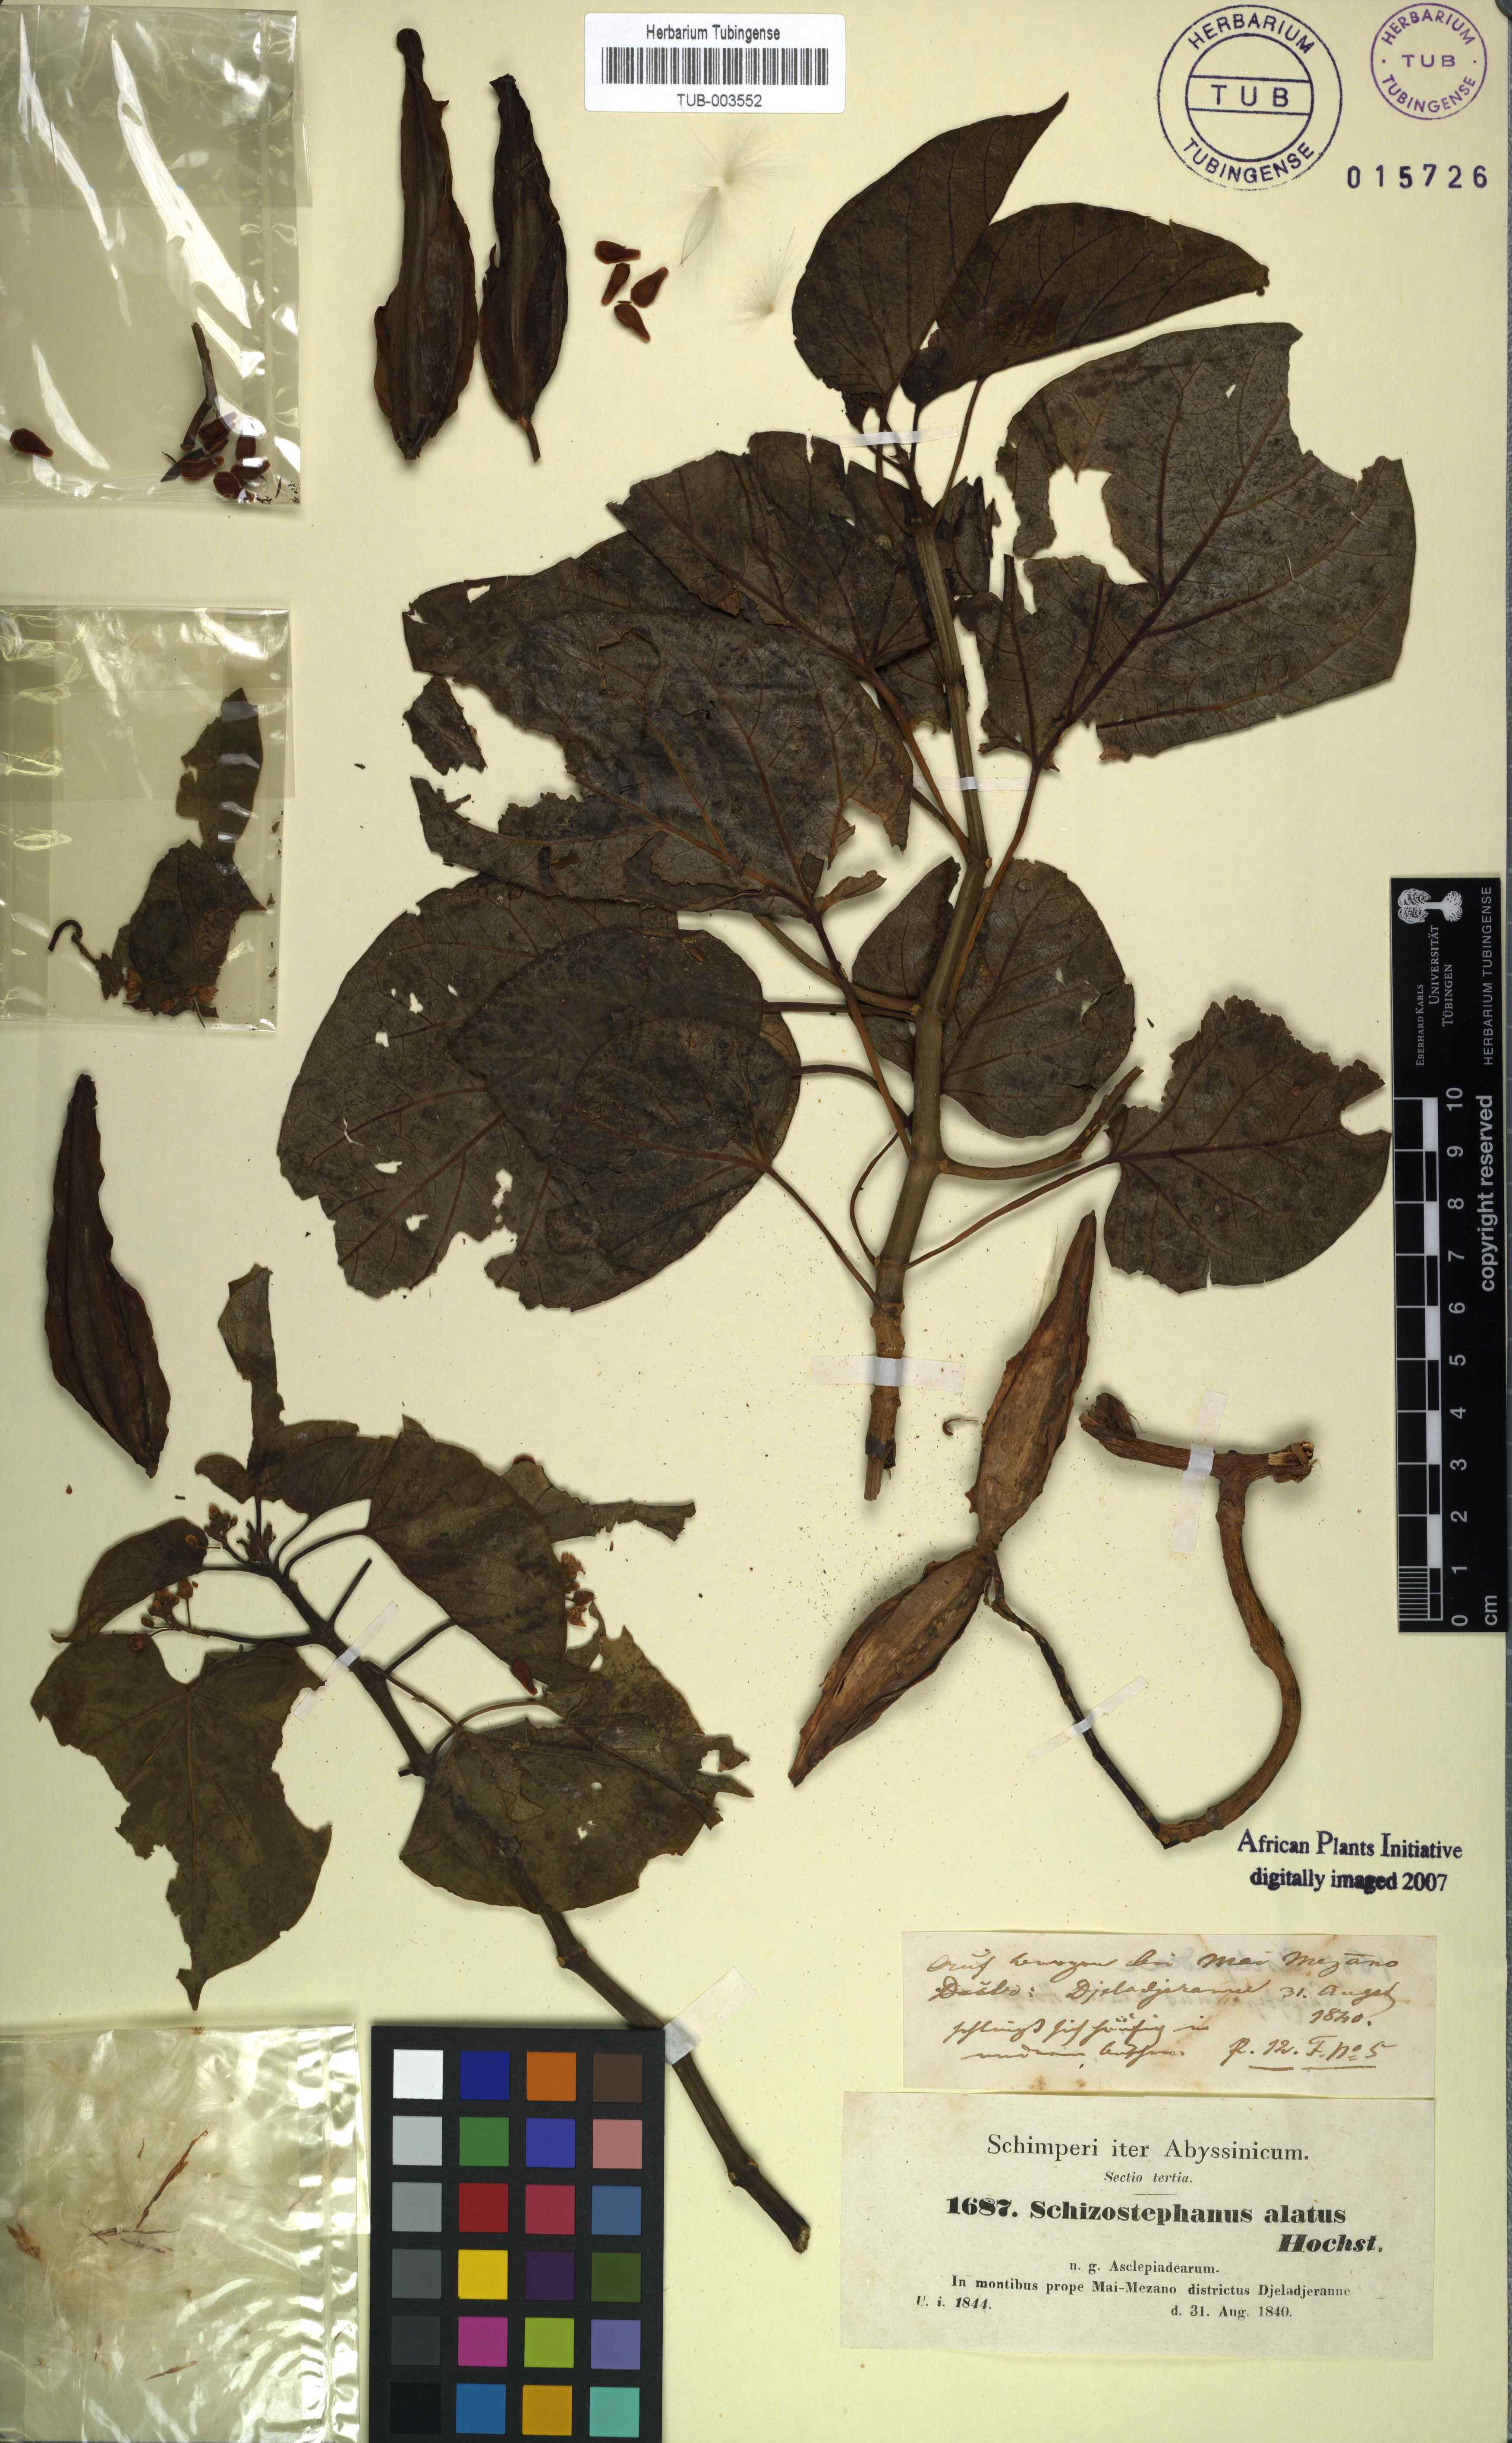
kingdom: Plantae
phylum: Tracheophyta
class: Magnoliopsida
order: Gentianales
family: Apocynaceae
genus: Cynanchum
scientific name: Cynanchum validum
